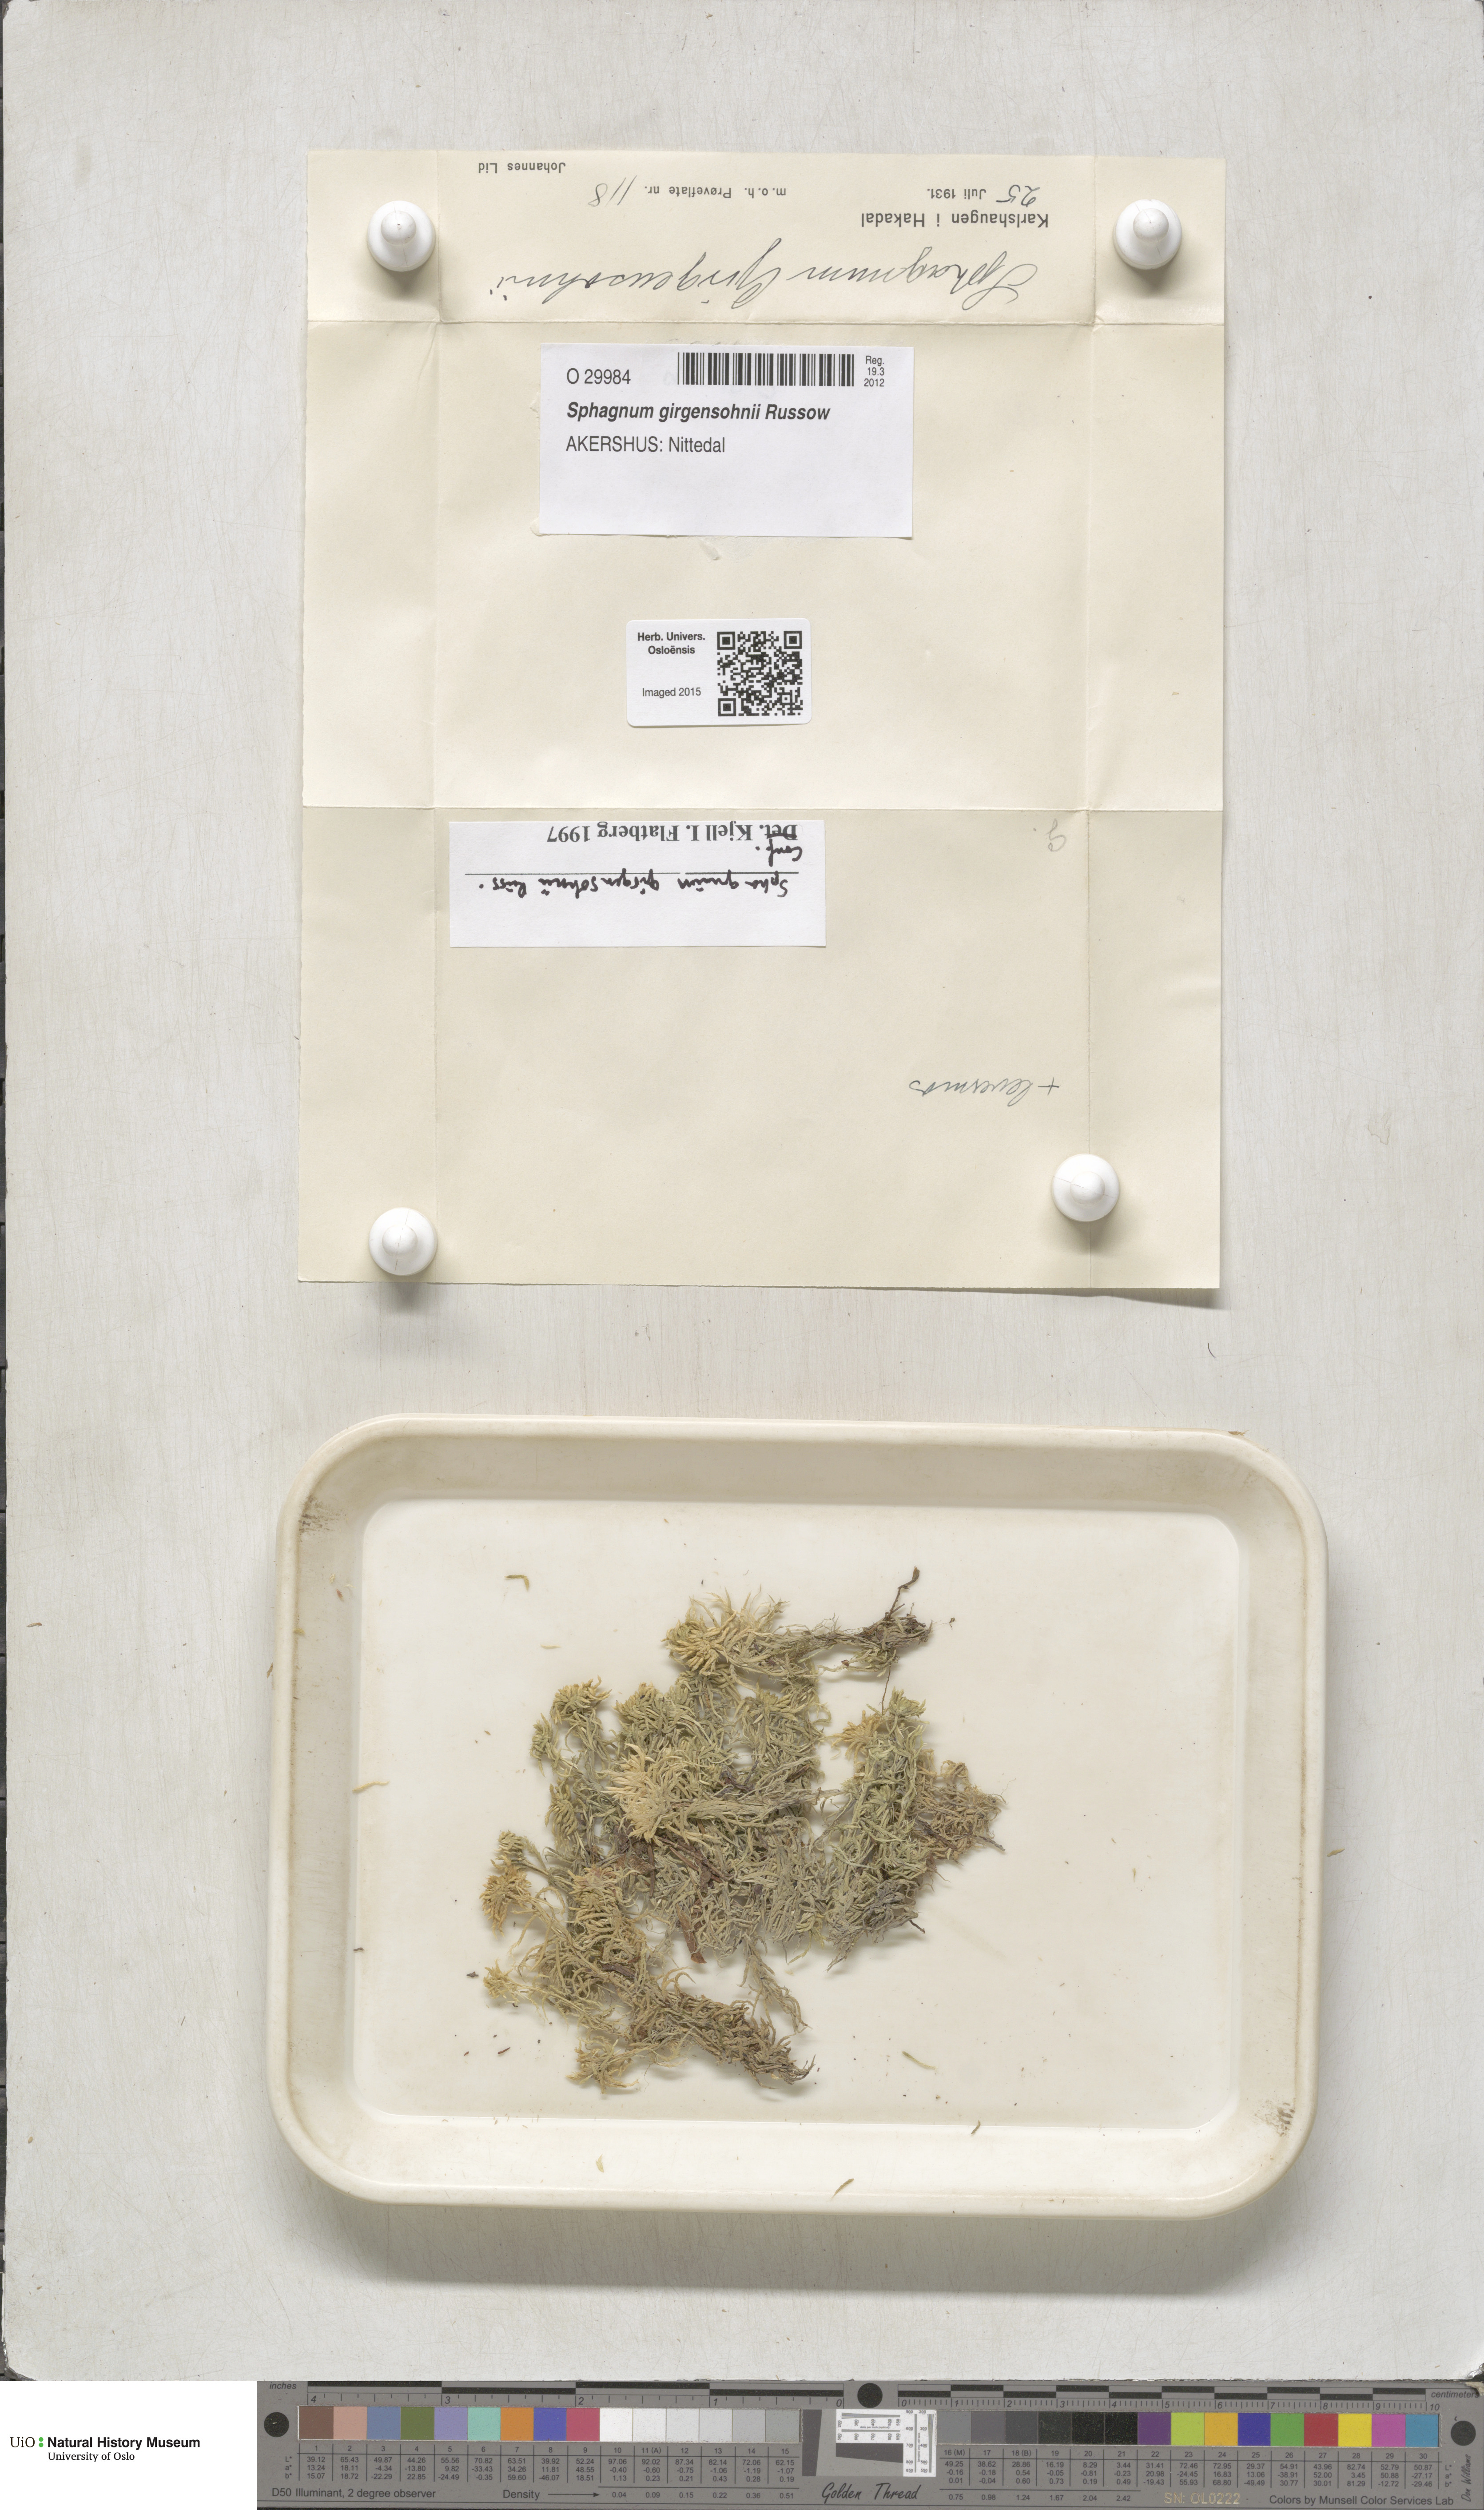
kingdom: Plantae
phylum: Bryophyta
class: Sphagnopsida
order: Sphagnales
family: Sphagnaceae
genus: Sphagnum
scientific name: Sphagnum girgensohnii
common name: Girgensohn's peat moss
